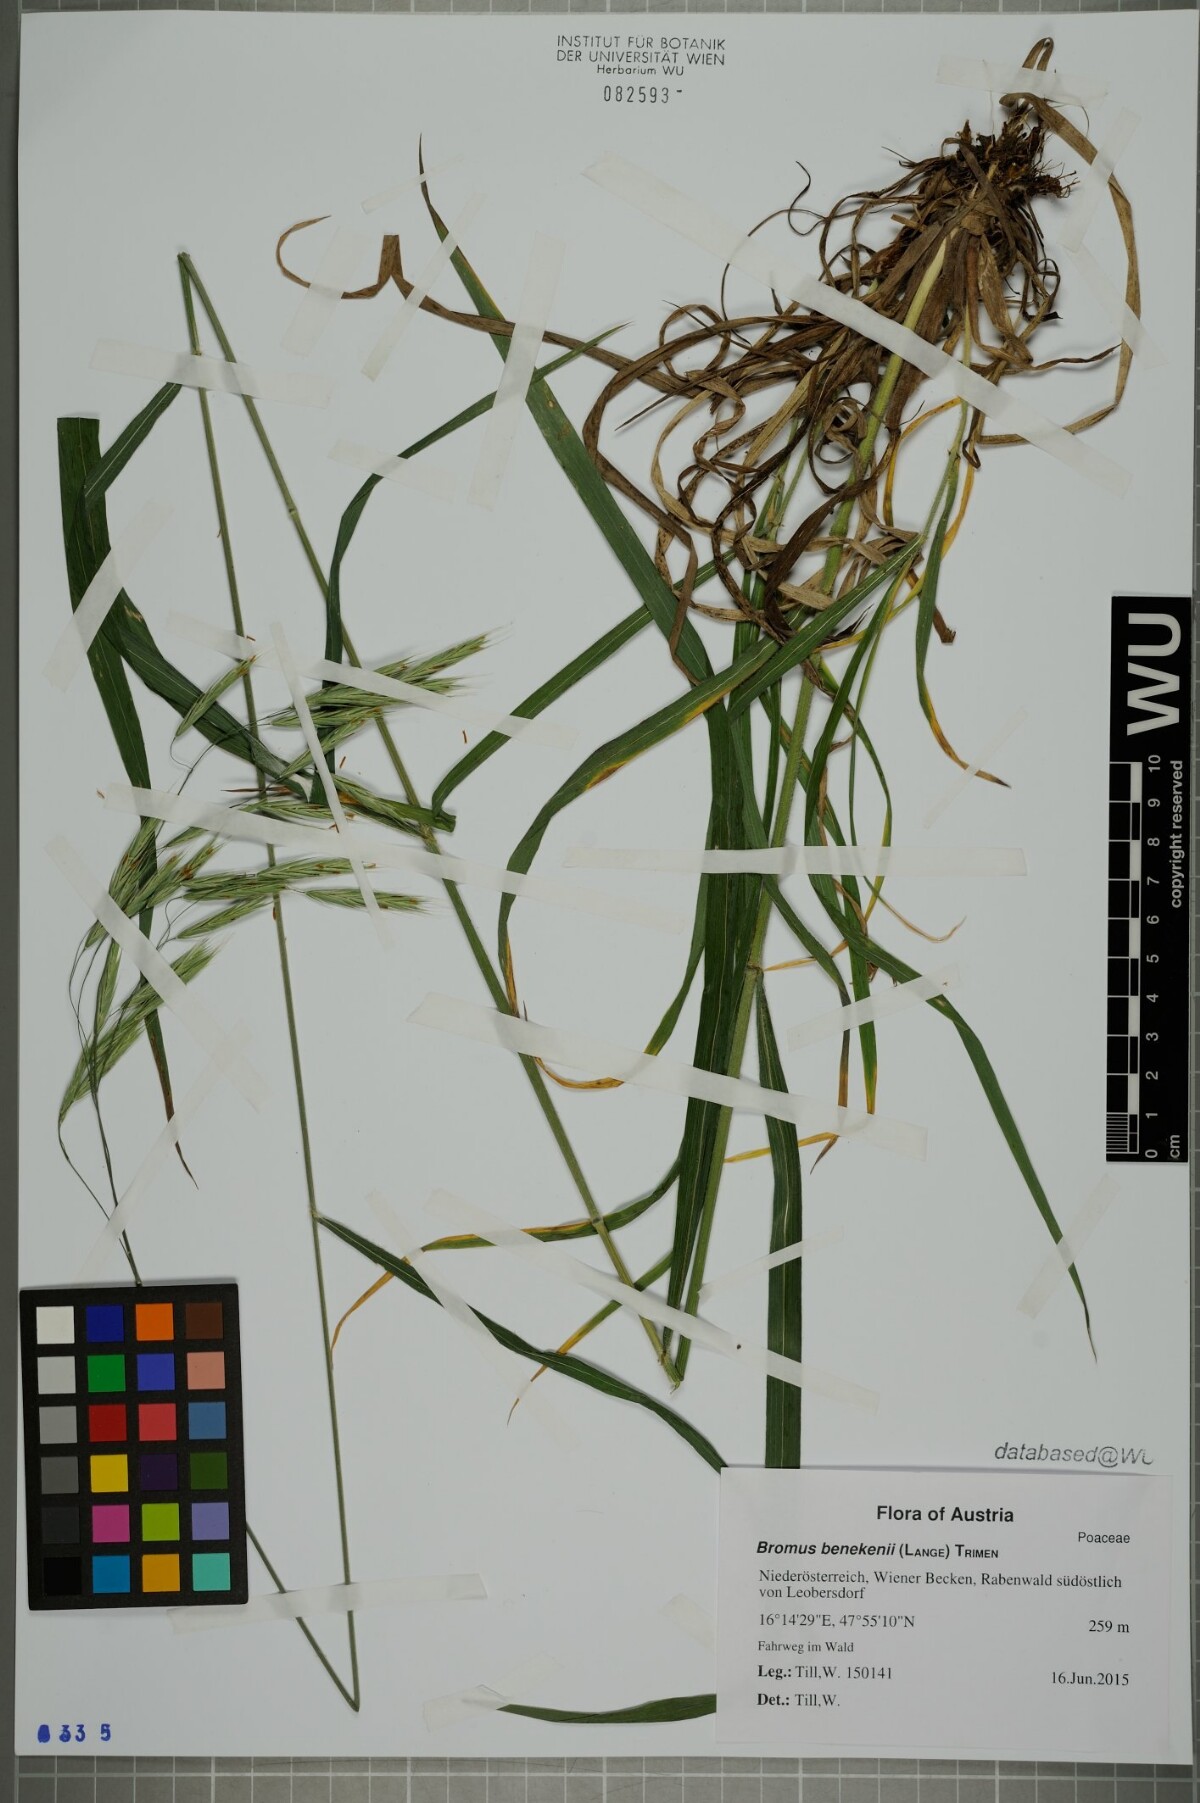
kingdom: Plantae
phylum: Tracheophyta
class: Liliopsida
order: Poales
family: Poaceae
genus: Bromus
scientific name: Bromus benekenii
